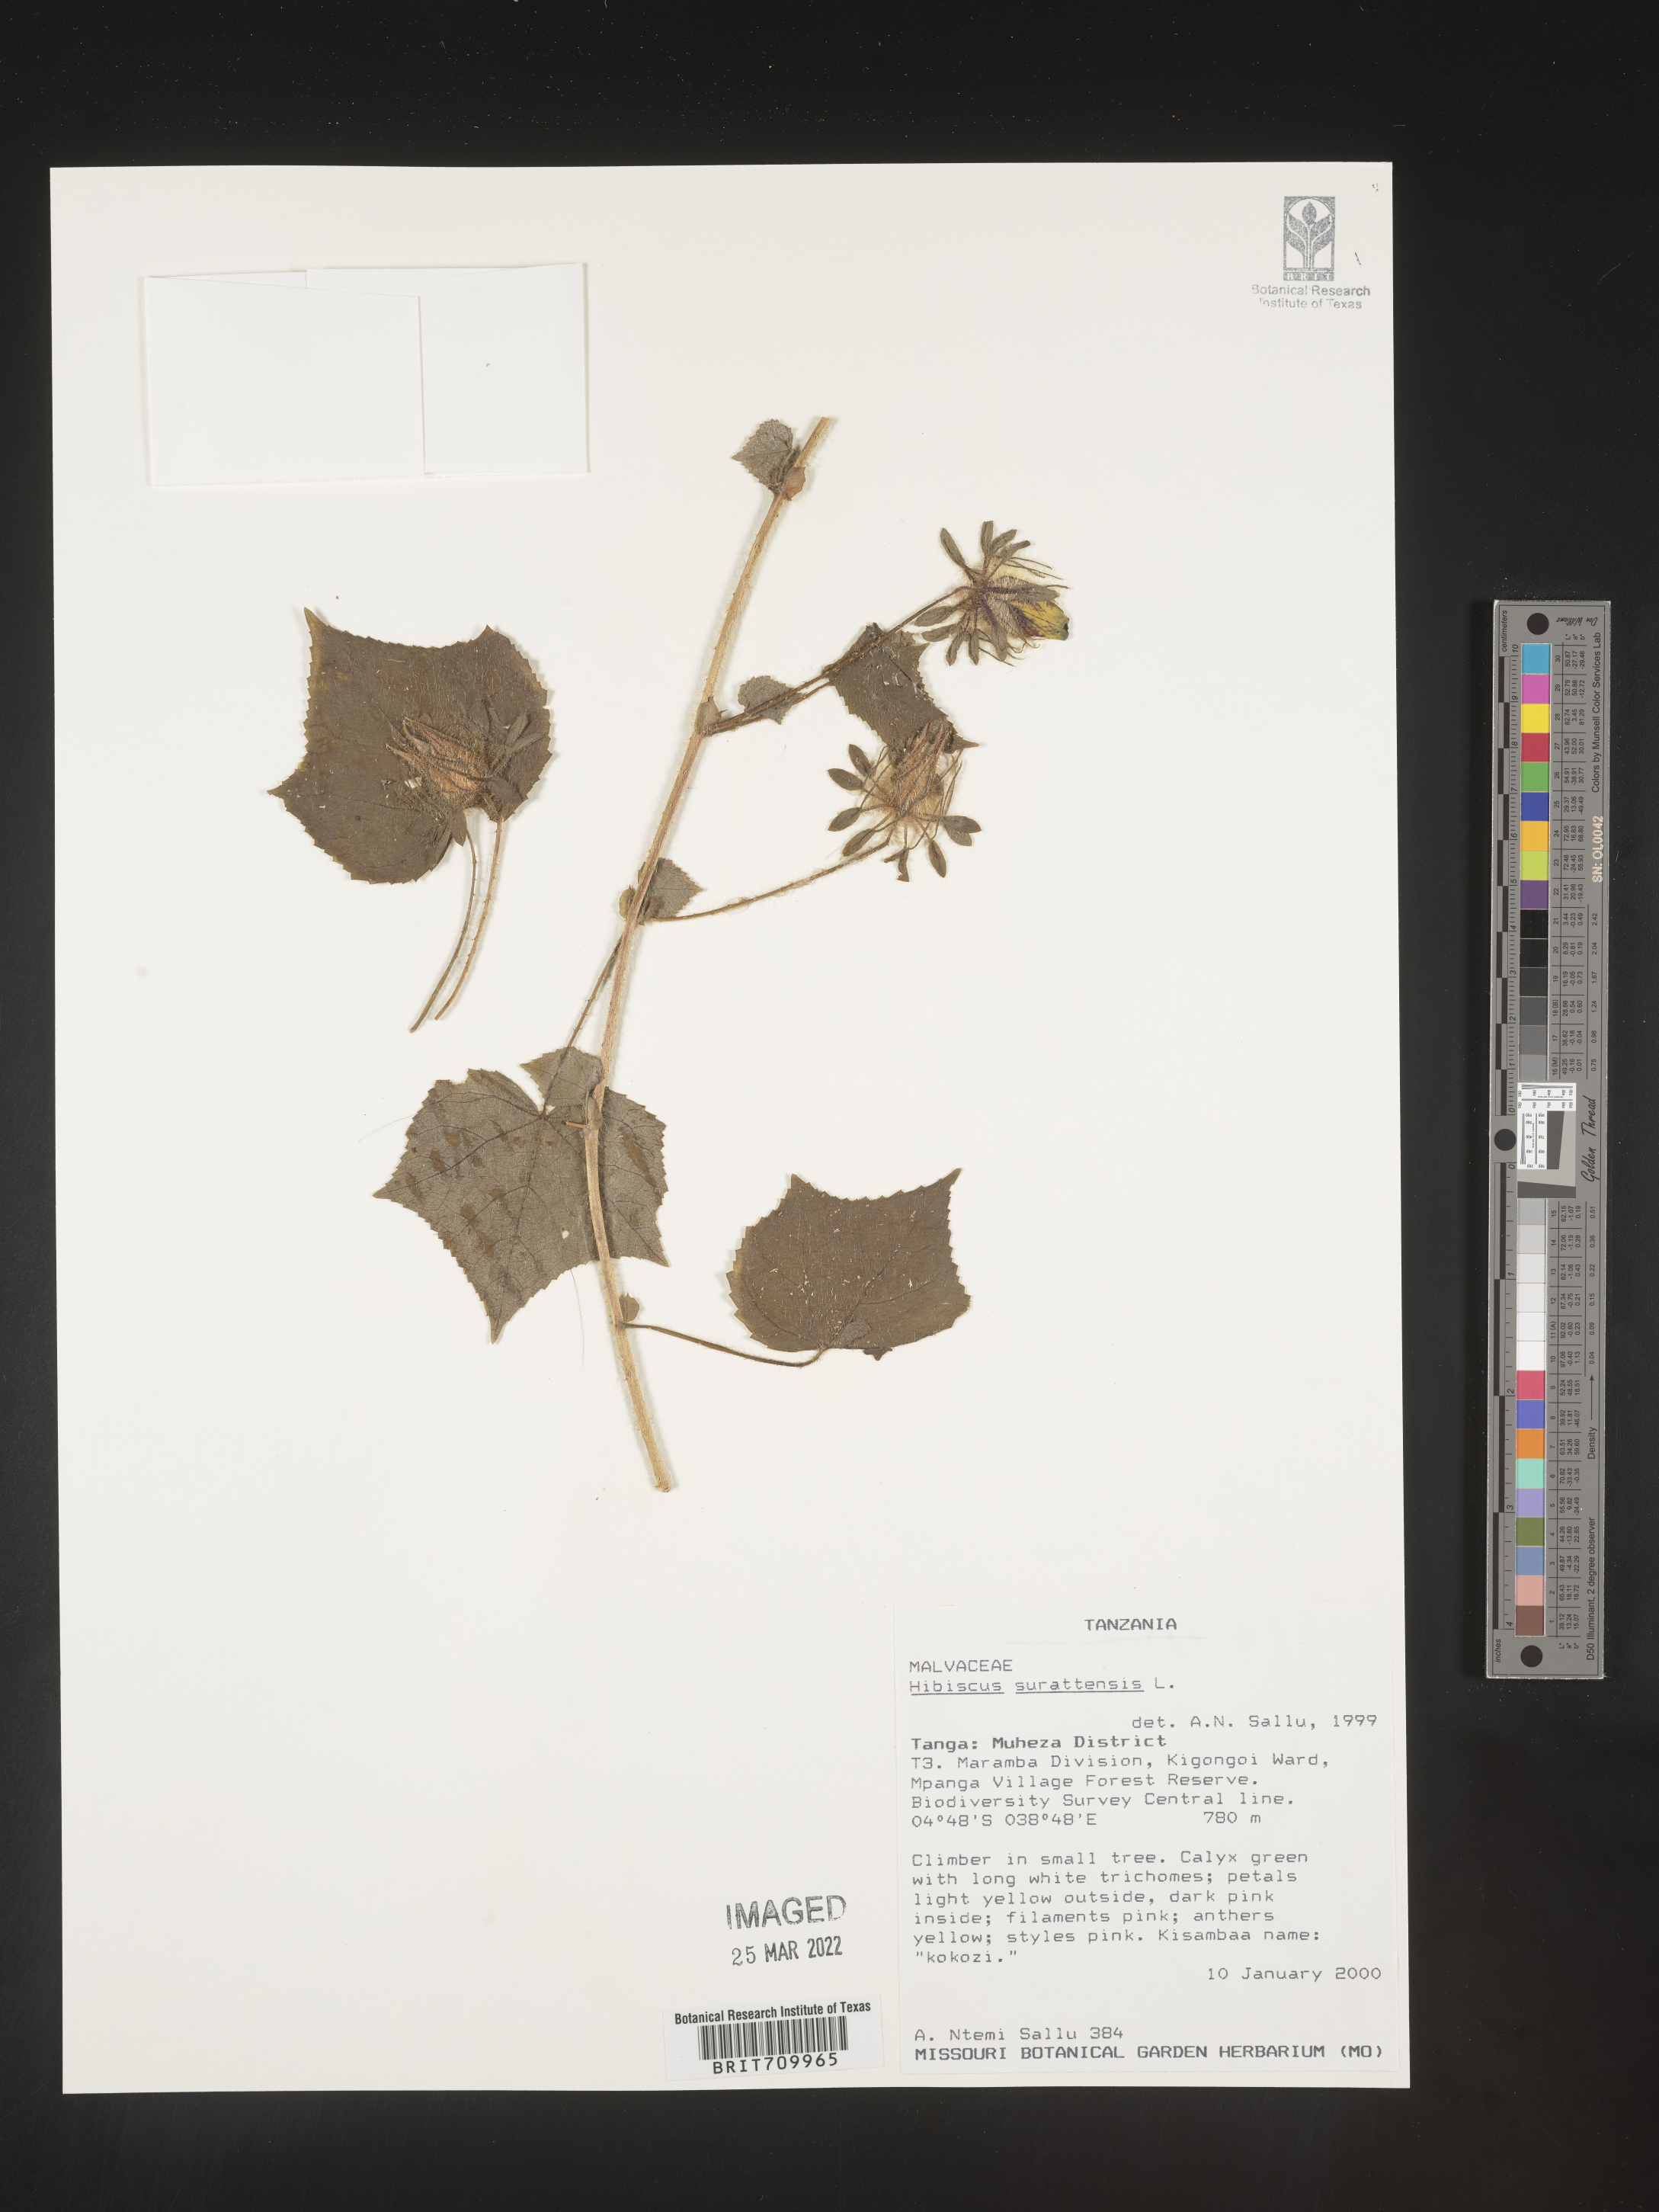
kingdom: Plantae
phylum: Tracheophyta
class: Magnoliopsida
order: Malvales
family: Malvaceae
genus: Hibiscus
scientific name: Hibiscus
